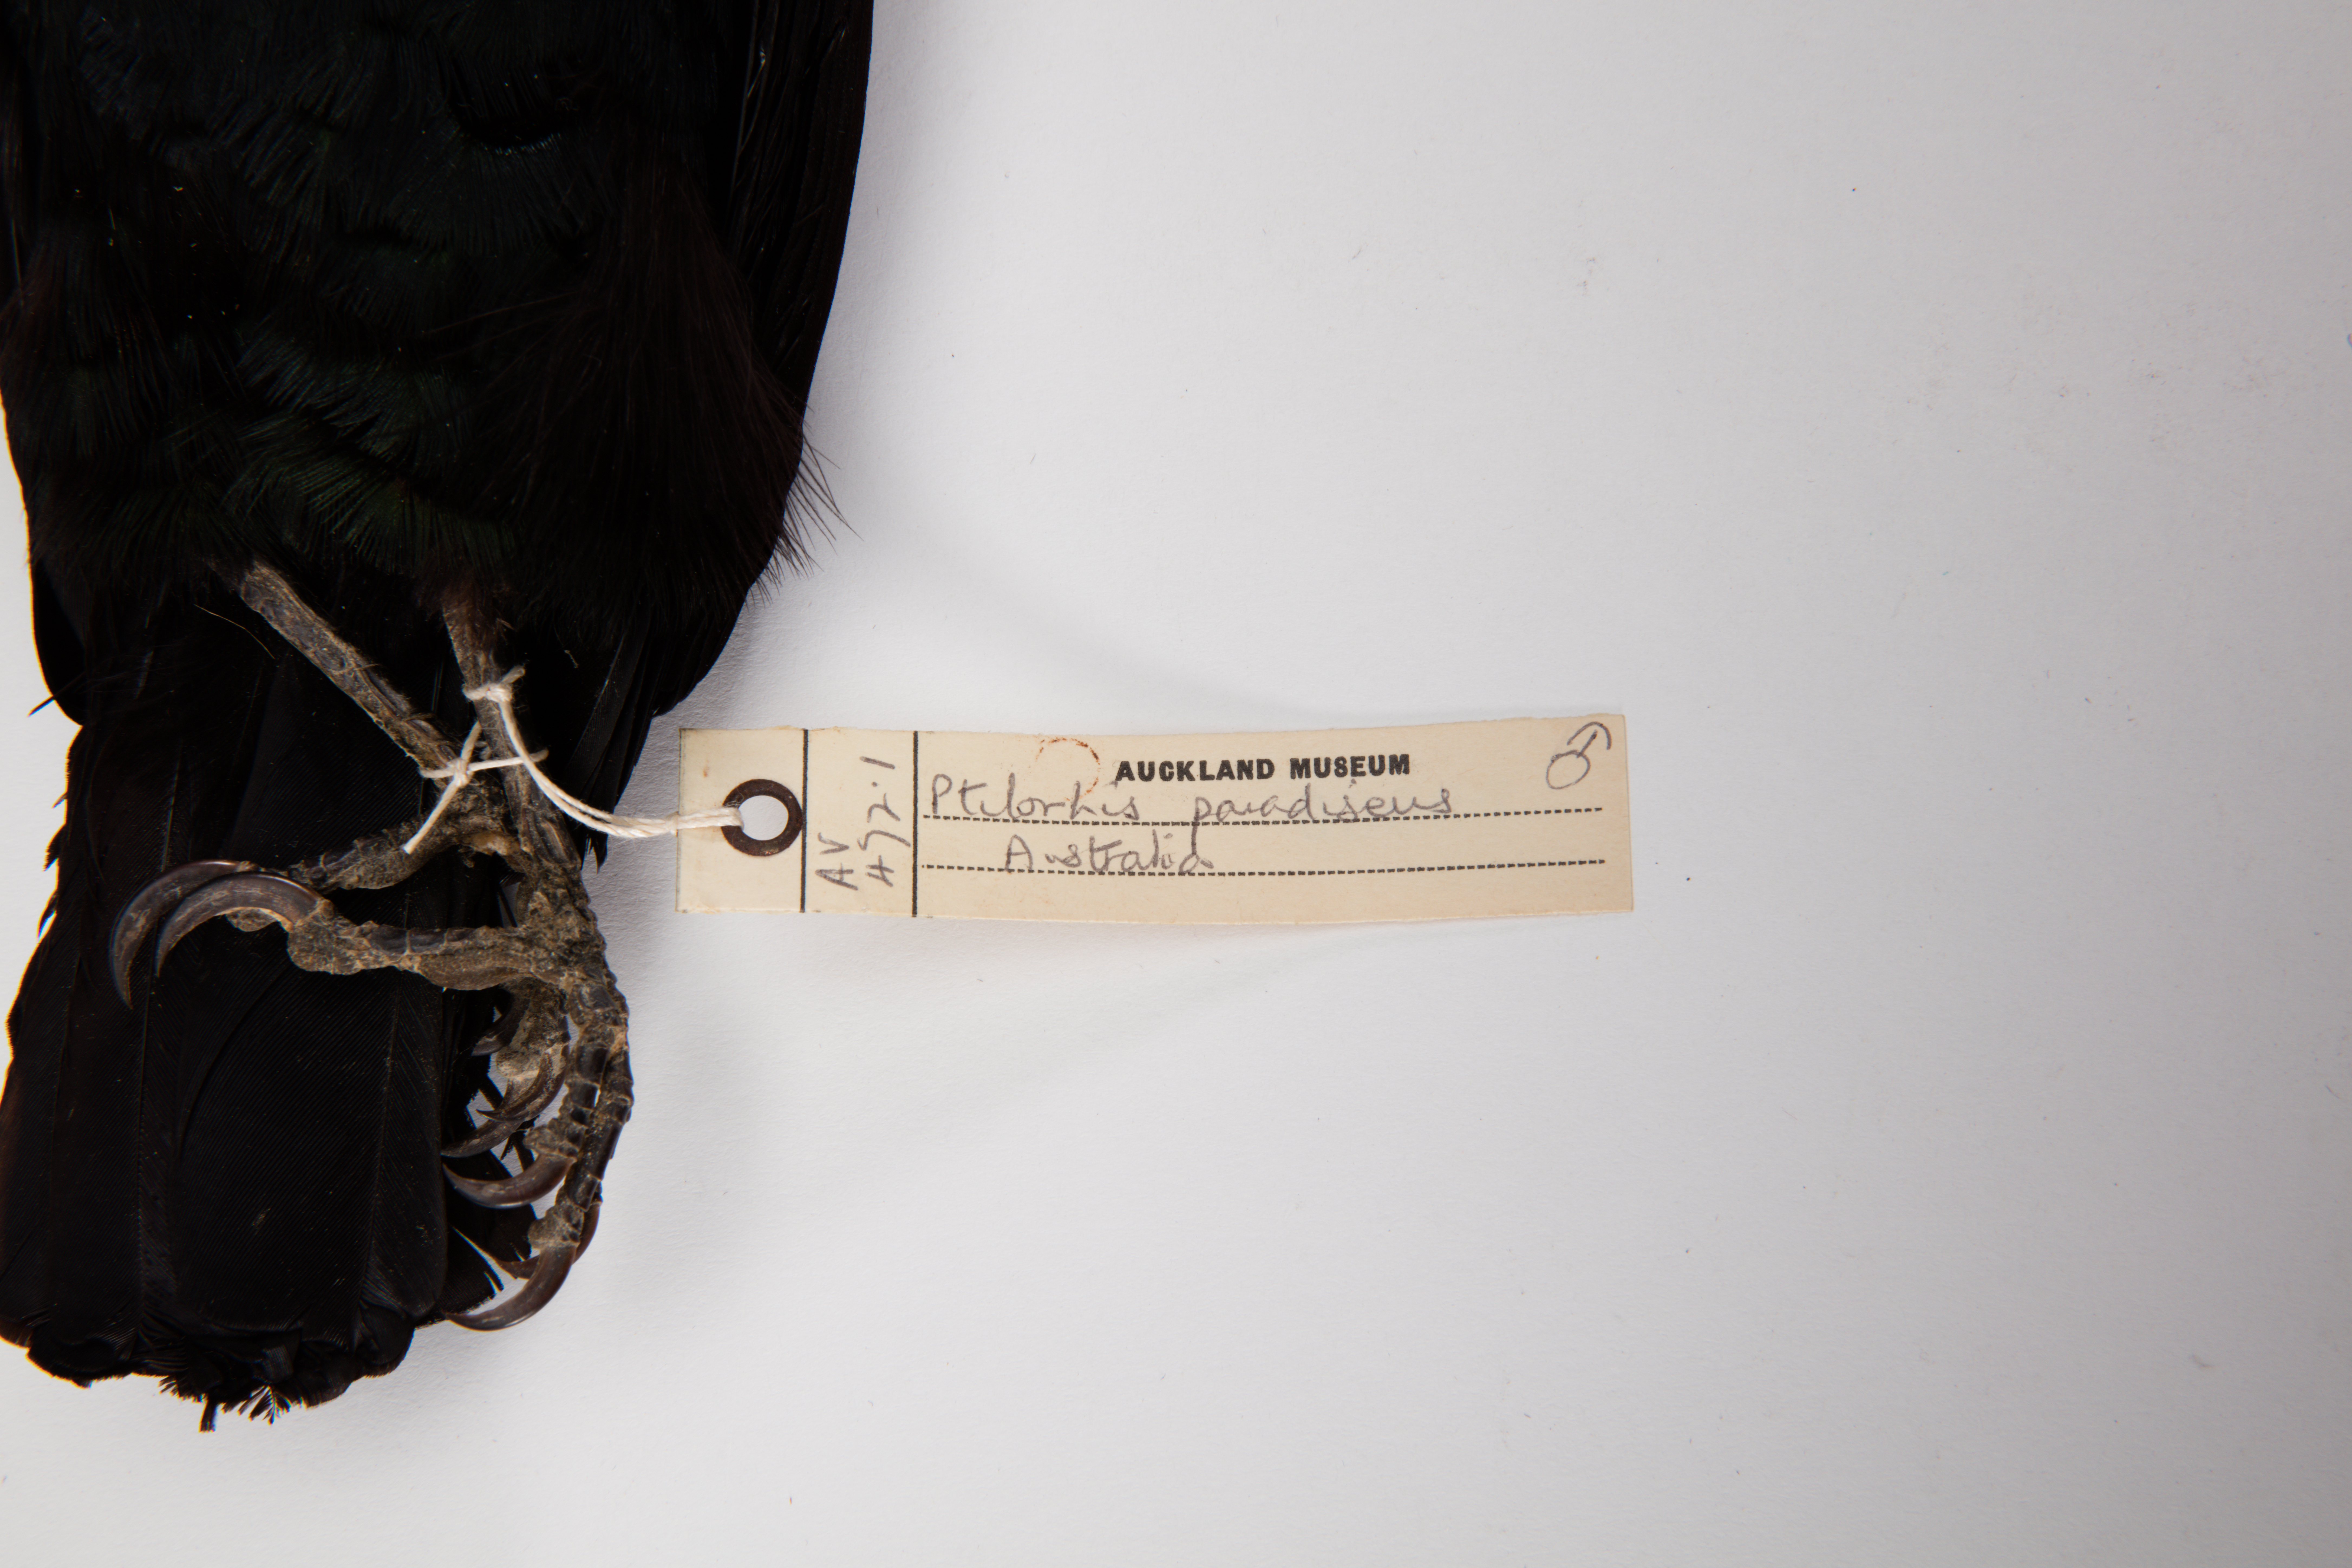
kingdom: Animalia
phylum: Chordata
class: Aves
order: Passeriformes
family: Paradisaeidae
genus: Ptiloris
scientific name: Ptiloris paradiseus
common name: Paradise riflebird
